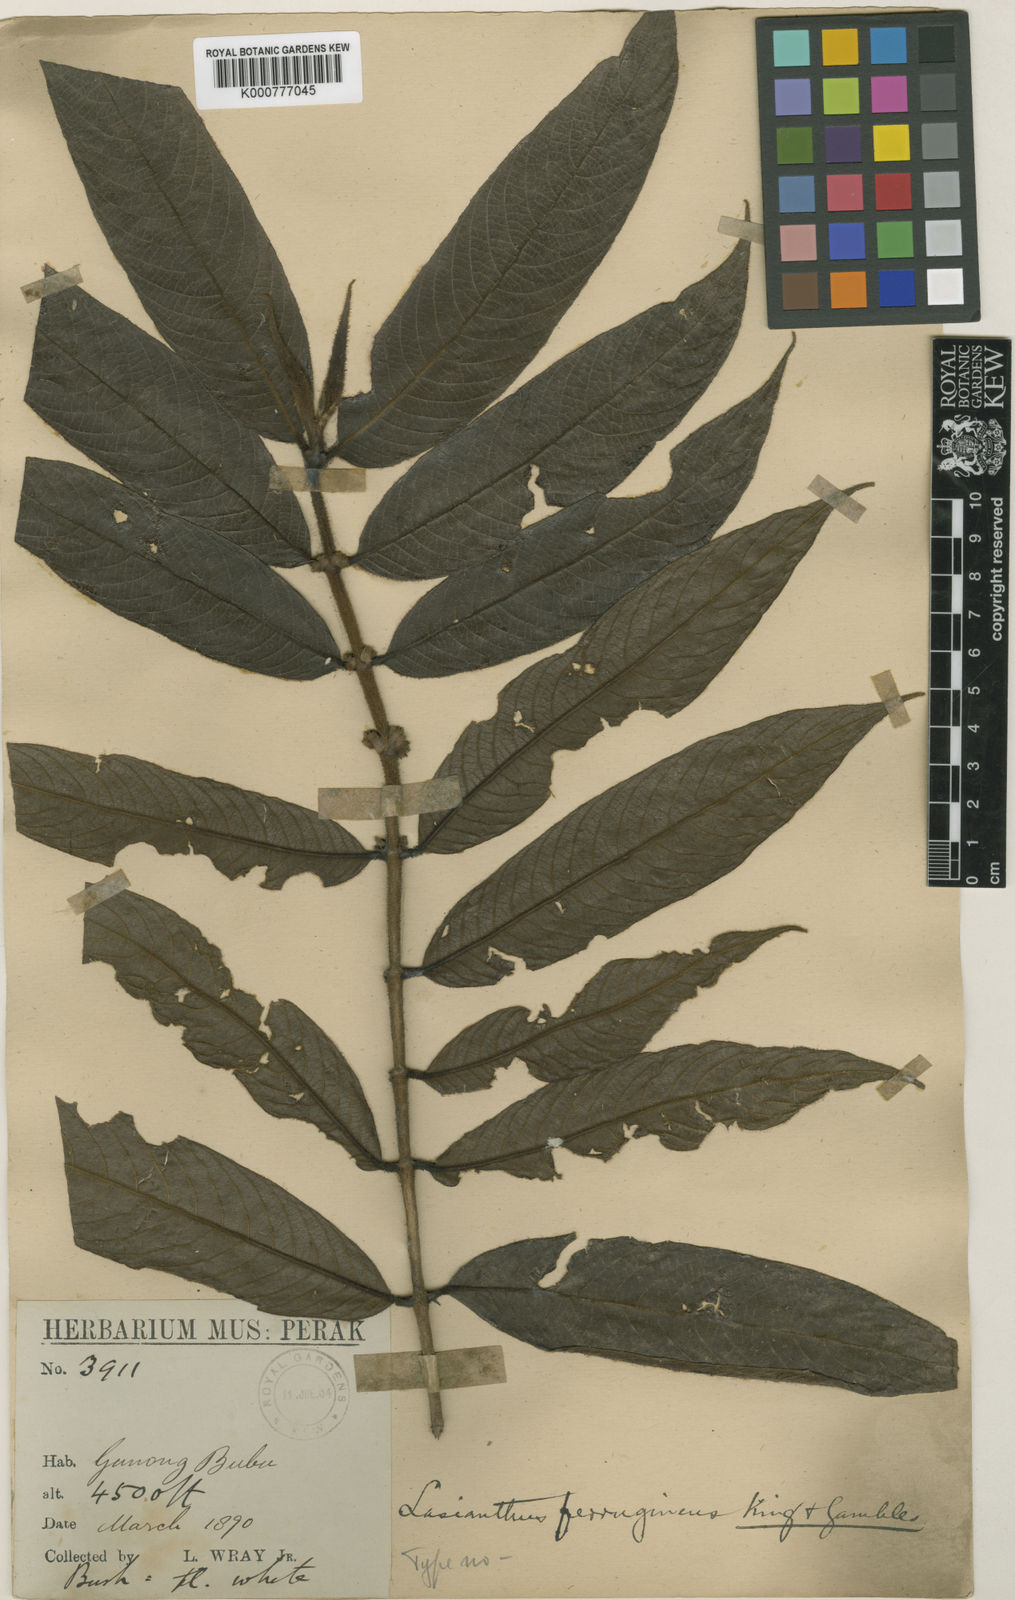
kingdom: Plantae
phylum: Tracheophyta
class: Magnoliopsida
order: Gentianales
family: Rubiaceae
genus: Lasianthus
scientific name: Lasianthus ferrugineus
